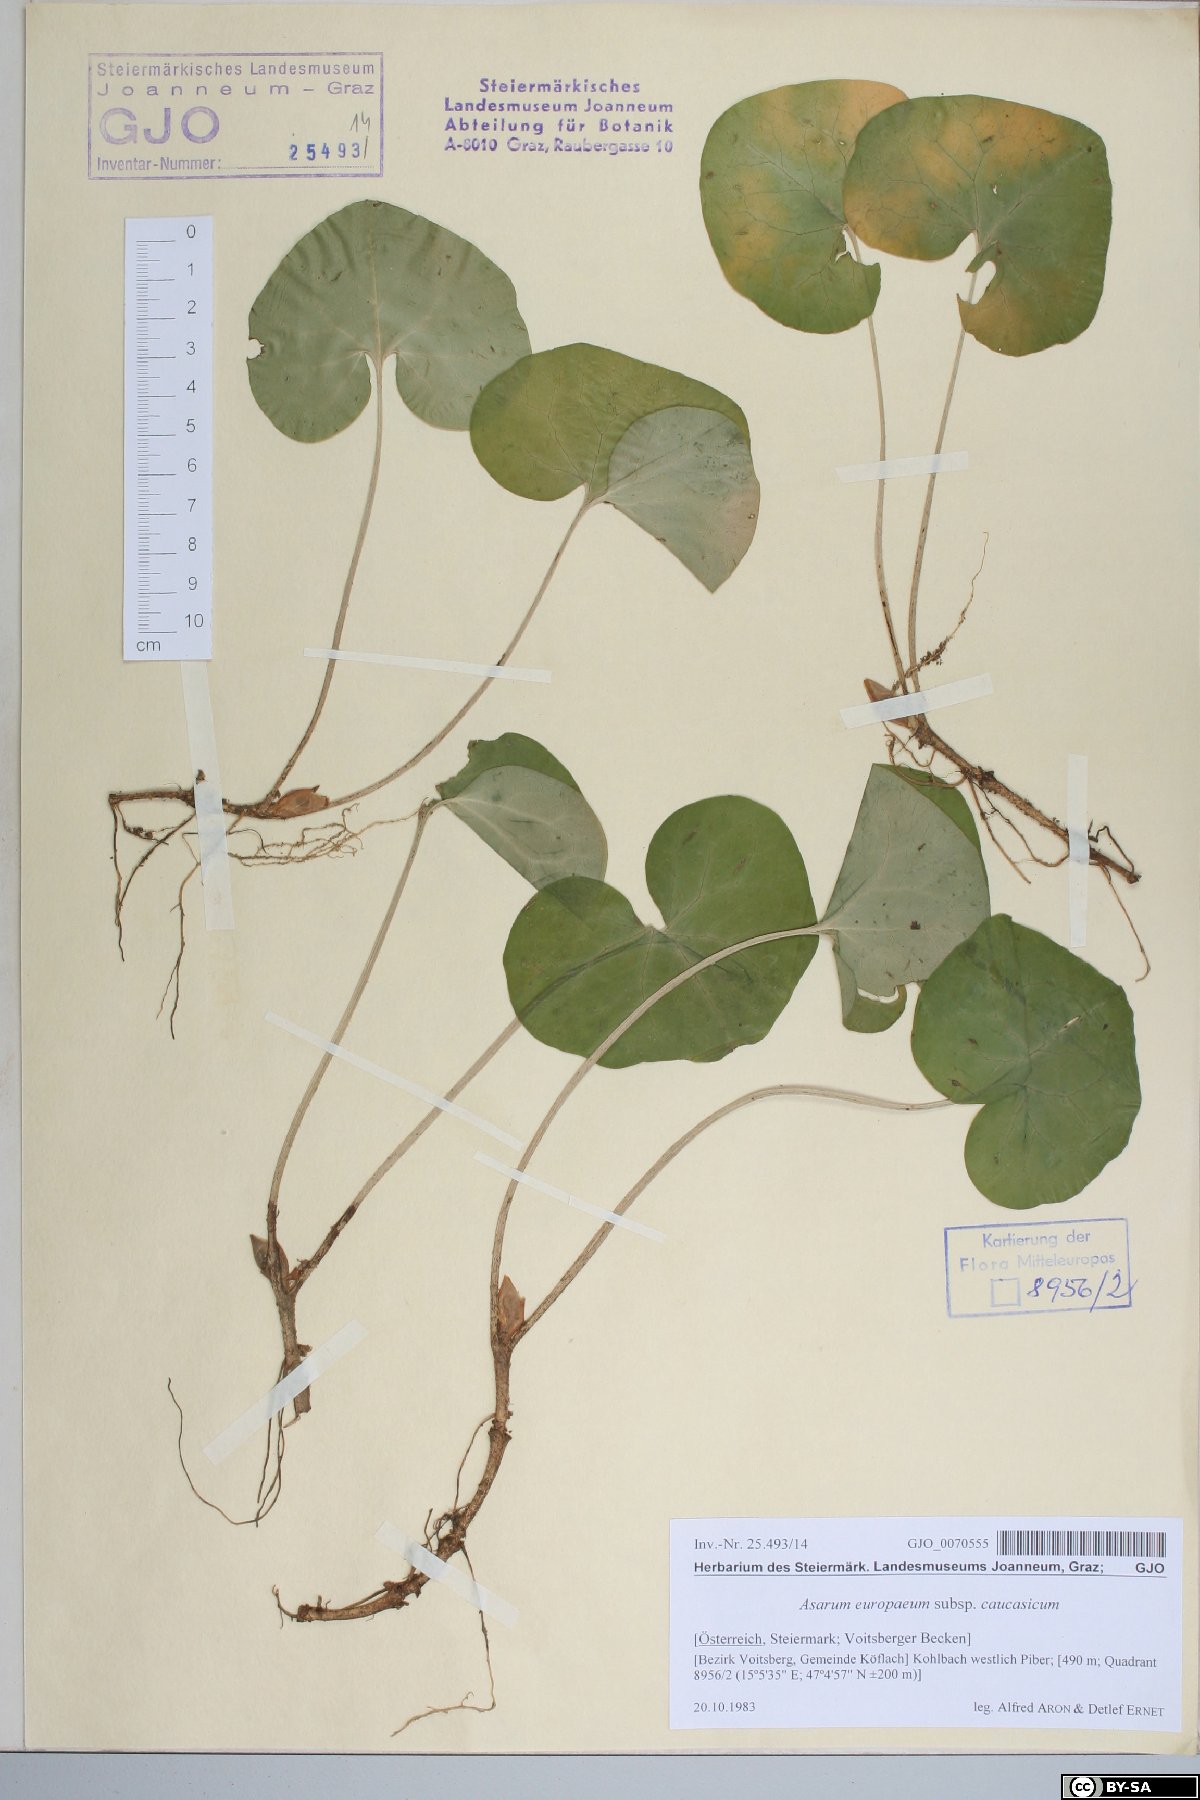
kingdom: Plantae
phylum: Tracheophyta
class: Magnoliopsida
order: Piperales
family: Aristolochiaceae
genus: Asarum
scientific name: Asarum europaeum
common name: Asarabacca
